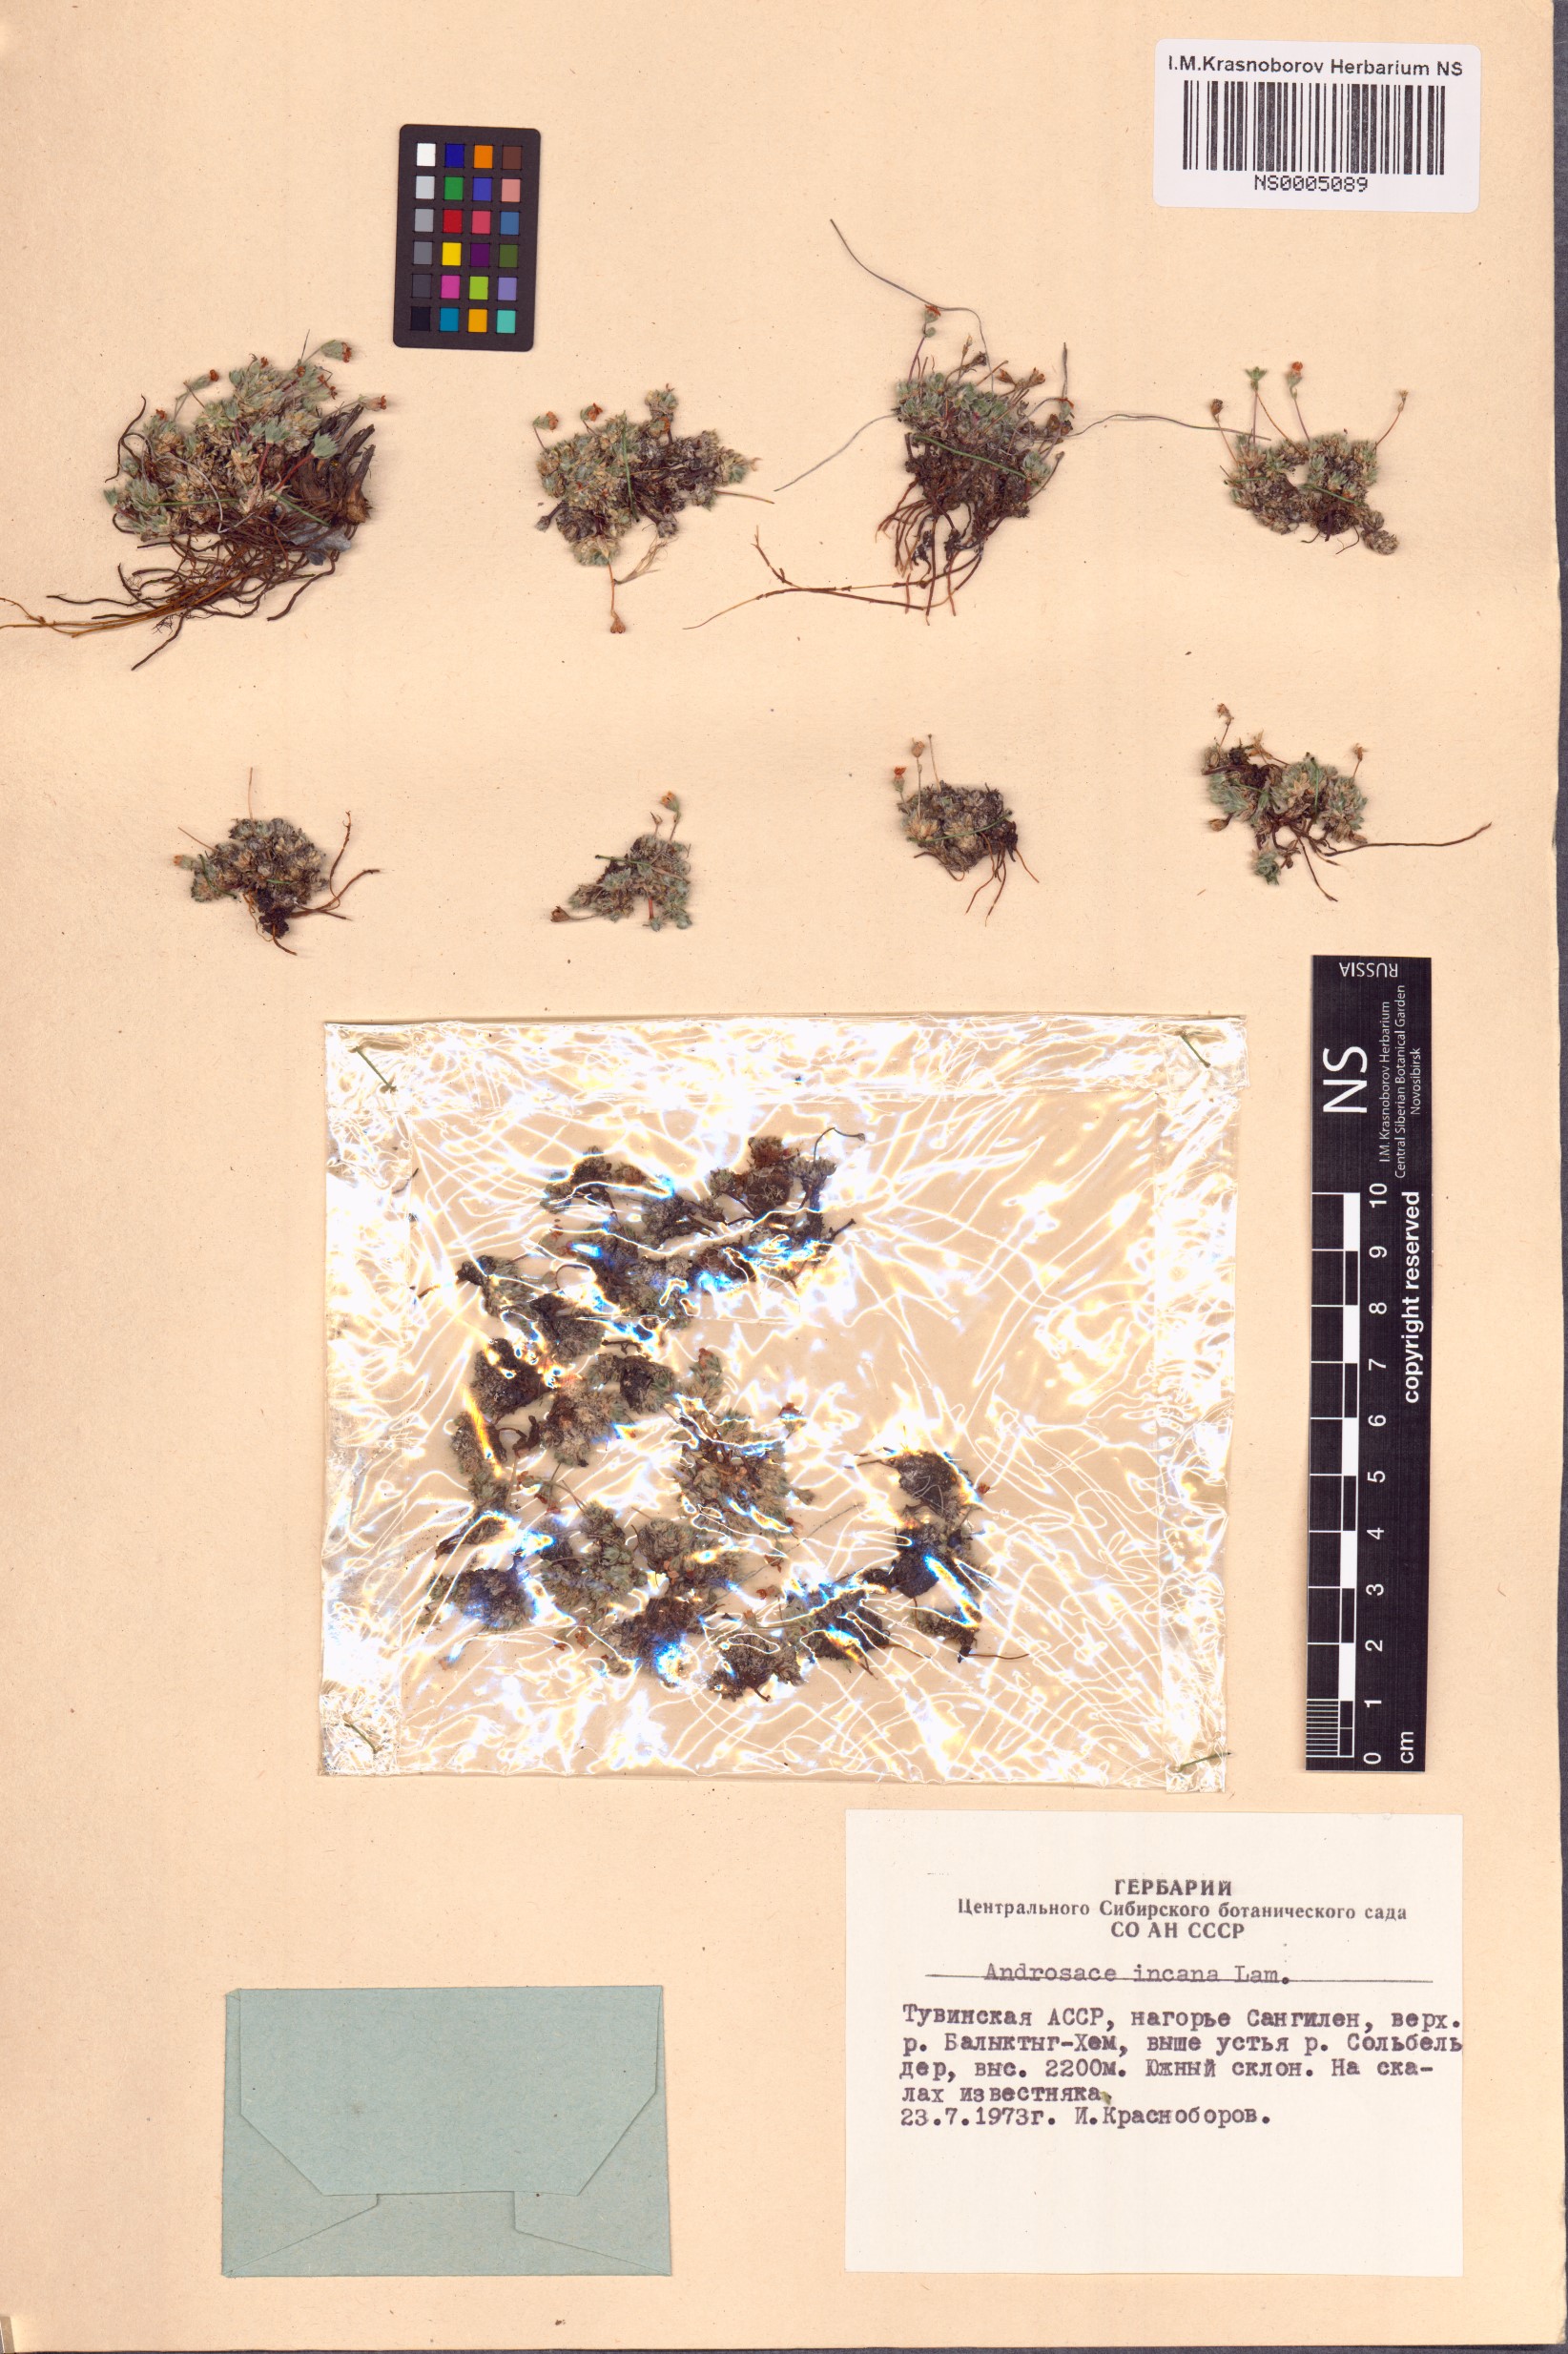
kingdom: Plantae
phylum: Tracheophyta
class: Magnoliopsida
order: Ericales
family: Primulaceae
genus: Androsace
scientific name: Androsace incana
